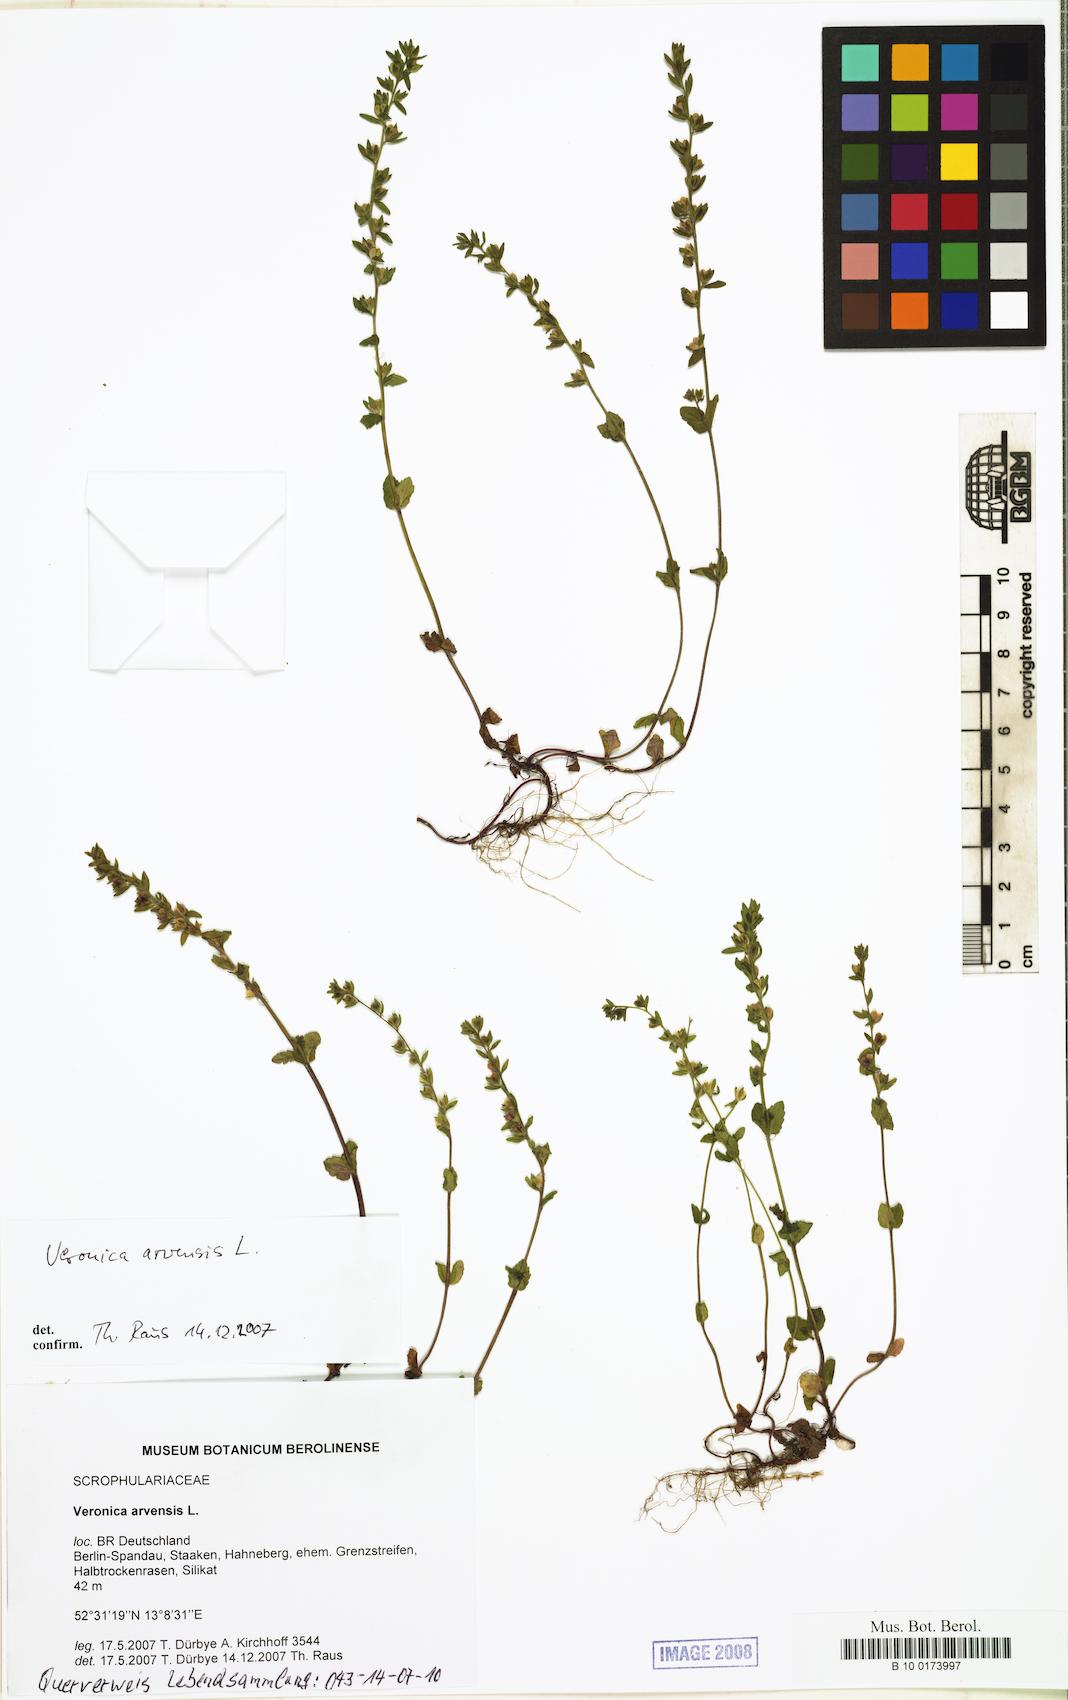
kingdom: Plantae
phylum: Tracheophyta
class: Magnoliopsida
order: Lamiales
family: Plantaginaceae
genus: Veronica
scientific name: Veronica arvensis
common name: Corn speedwell
